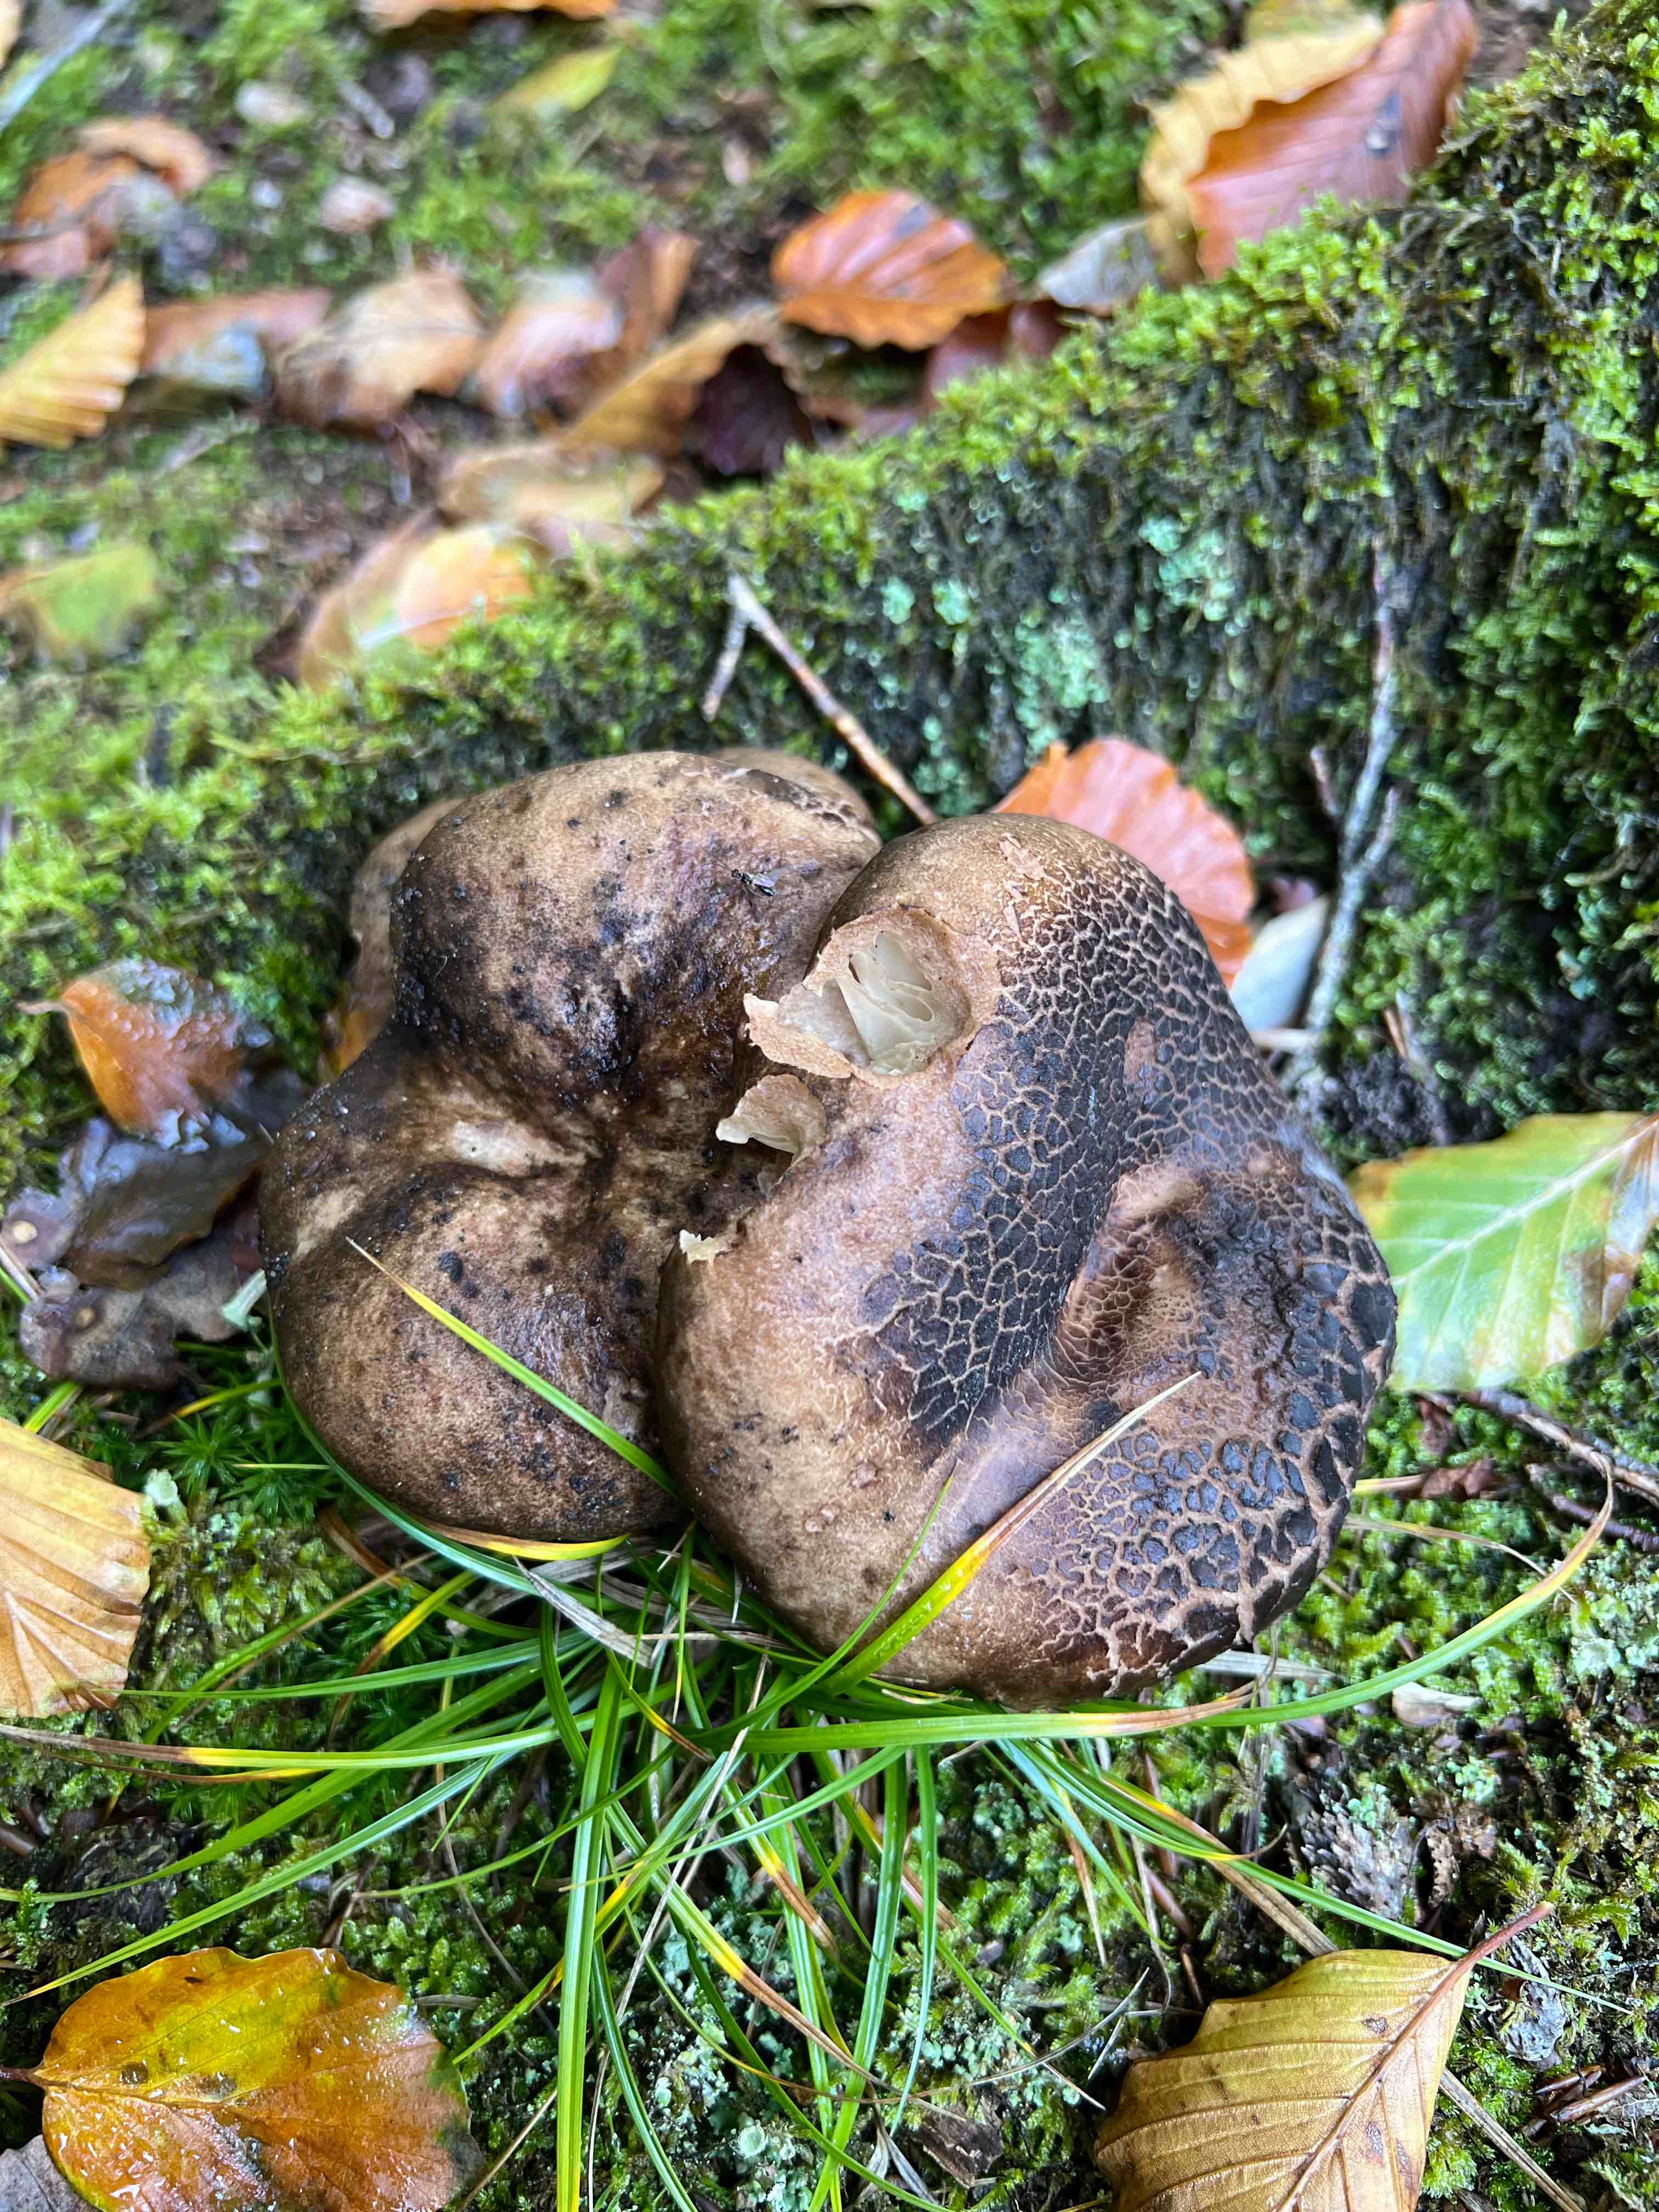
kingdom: Fungi
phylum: Basidiomycota
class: Agaricomycetes
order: Russulales
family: Russulaceae
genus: Russula
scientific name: Russula adusta
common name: sværtende skørhat
